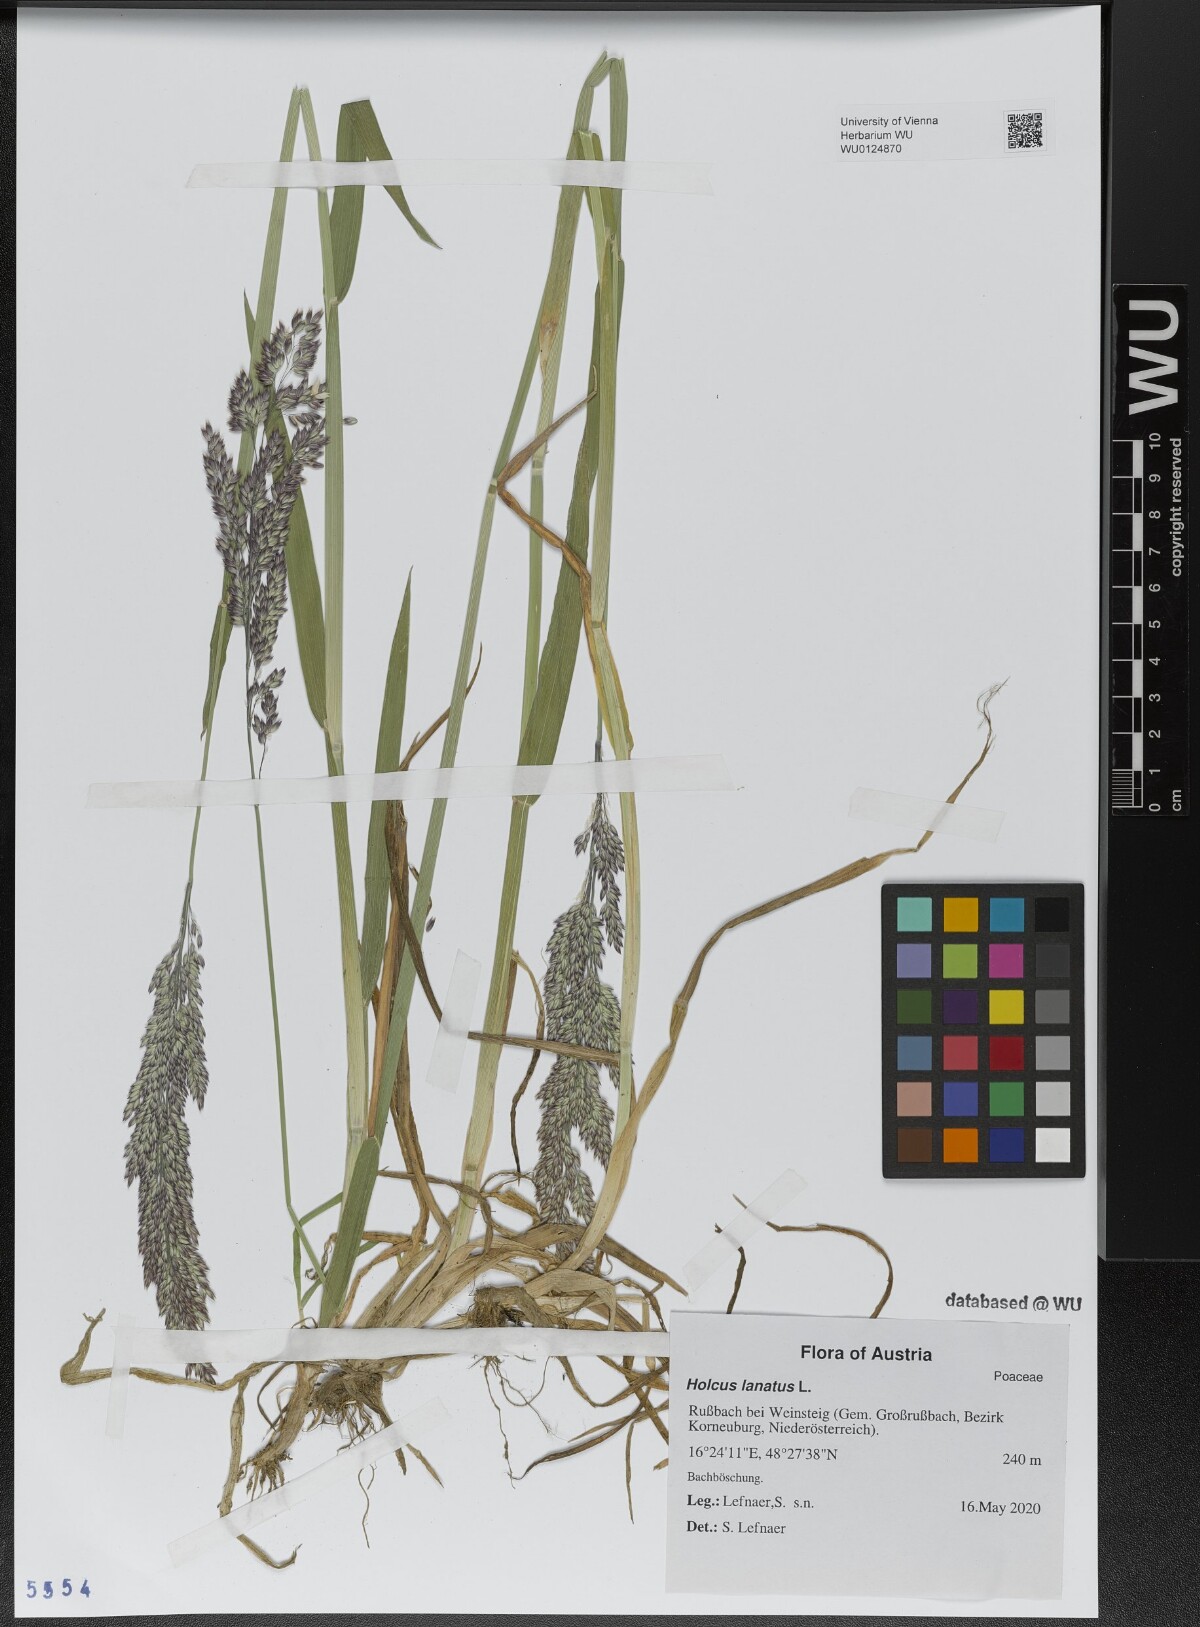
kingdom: Plantae
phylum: Tracheophyta
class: Liliopsida
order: Poales
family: Poaceae
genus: Holcus
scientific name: Holcus lanatus
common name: Yorkshire-fog
